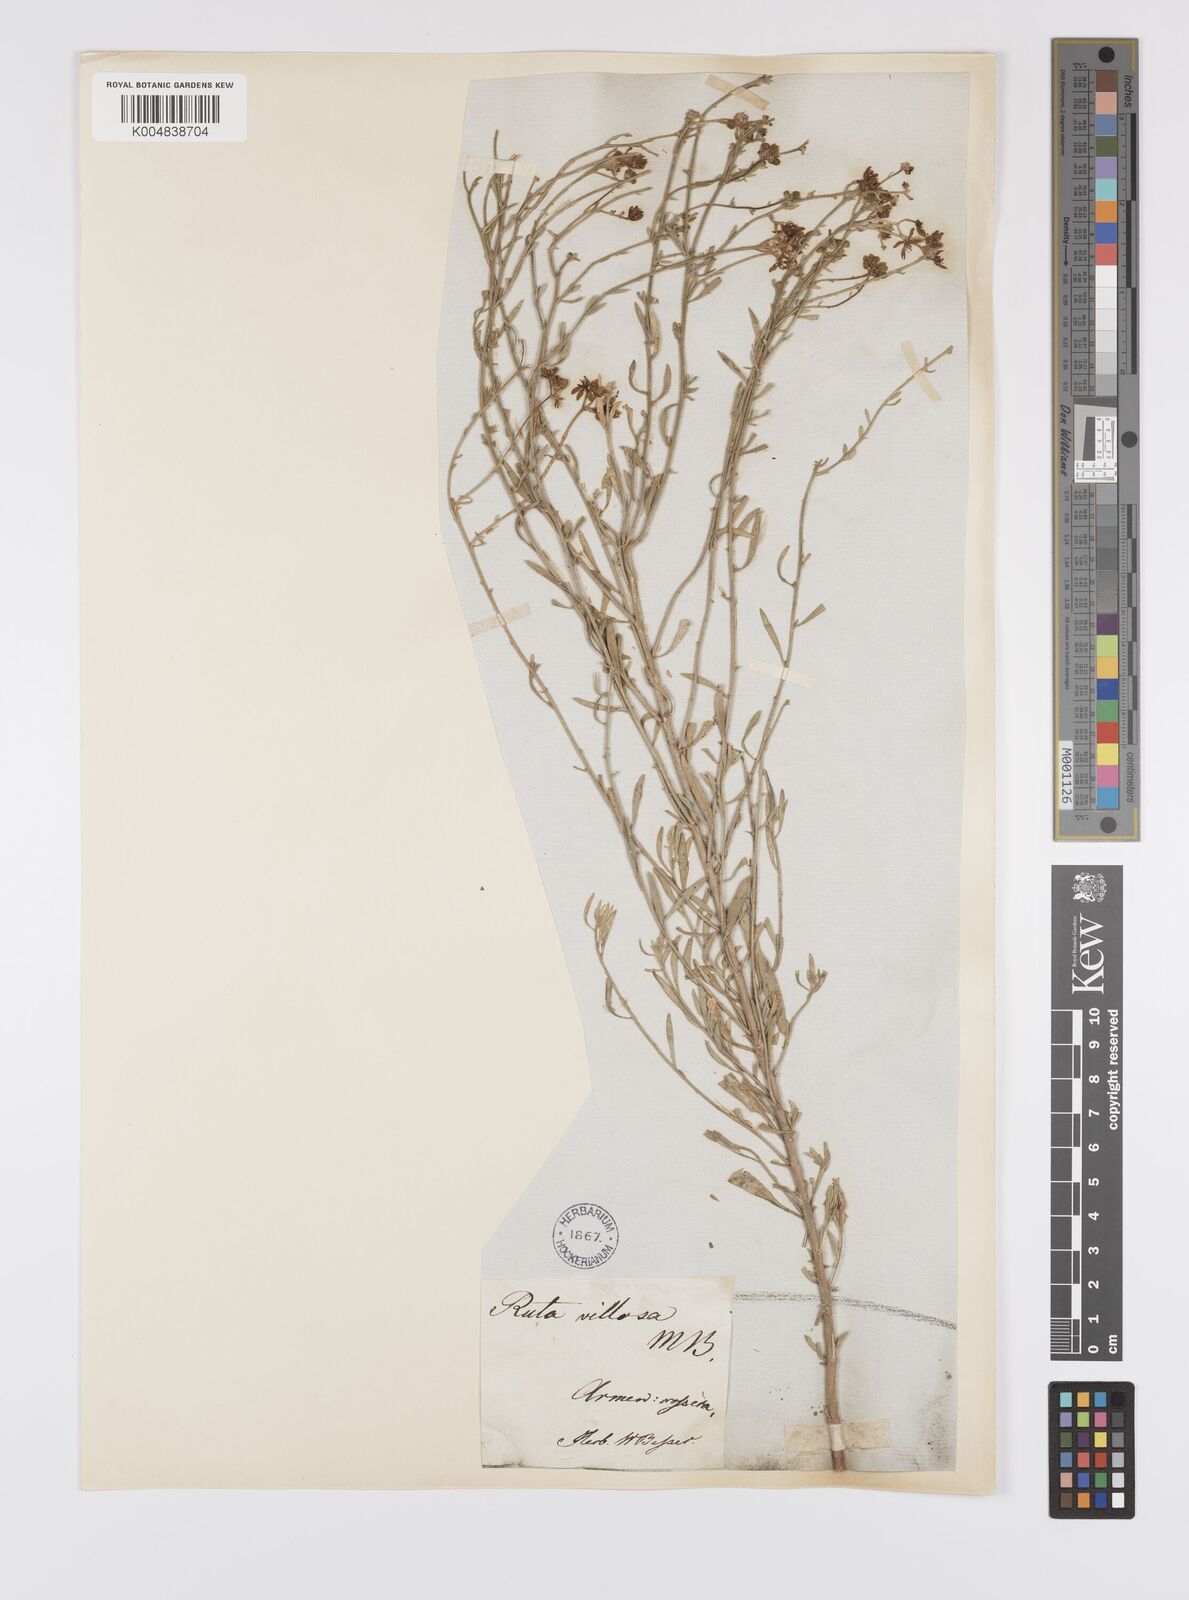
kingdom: Plantae
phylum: Tracheophyta
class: Magnoliopsida
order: Sapindales
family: Rutaceae
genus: Haplophyllum
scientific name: Haplophyllum villosum
